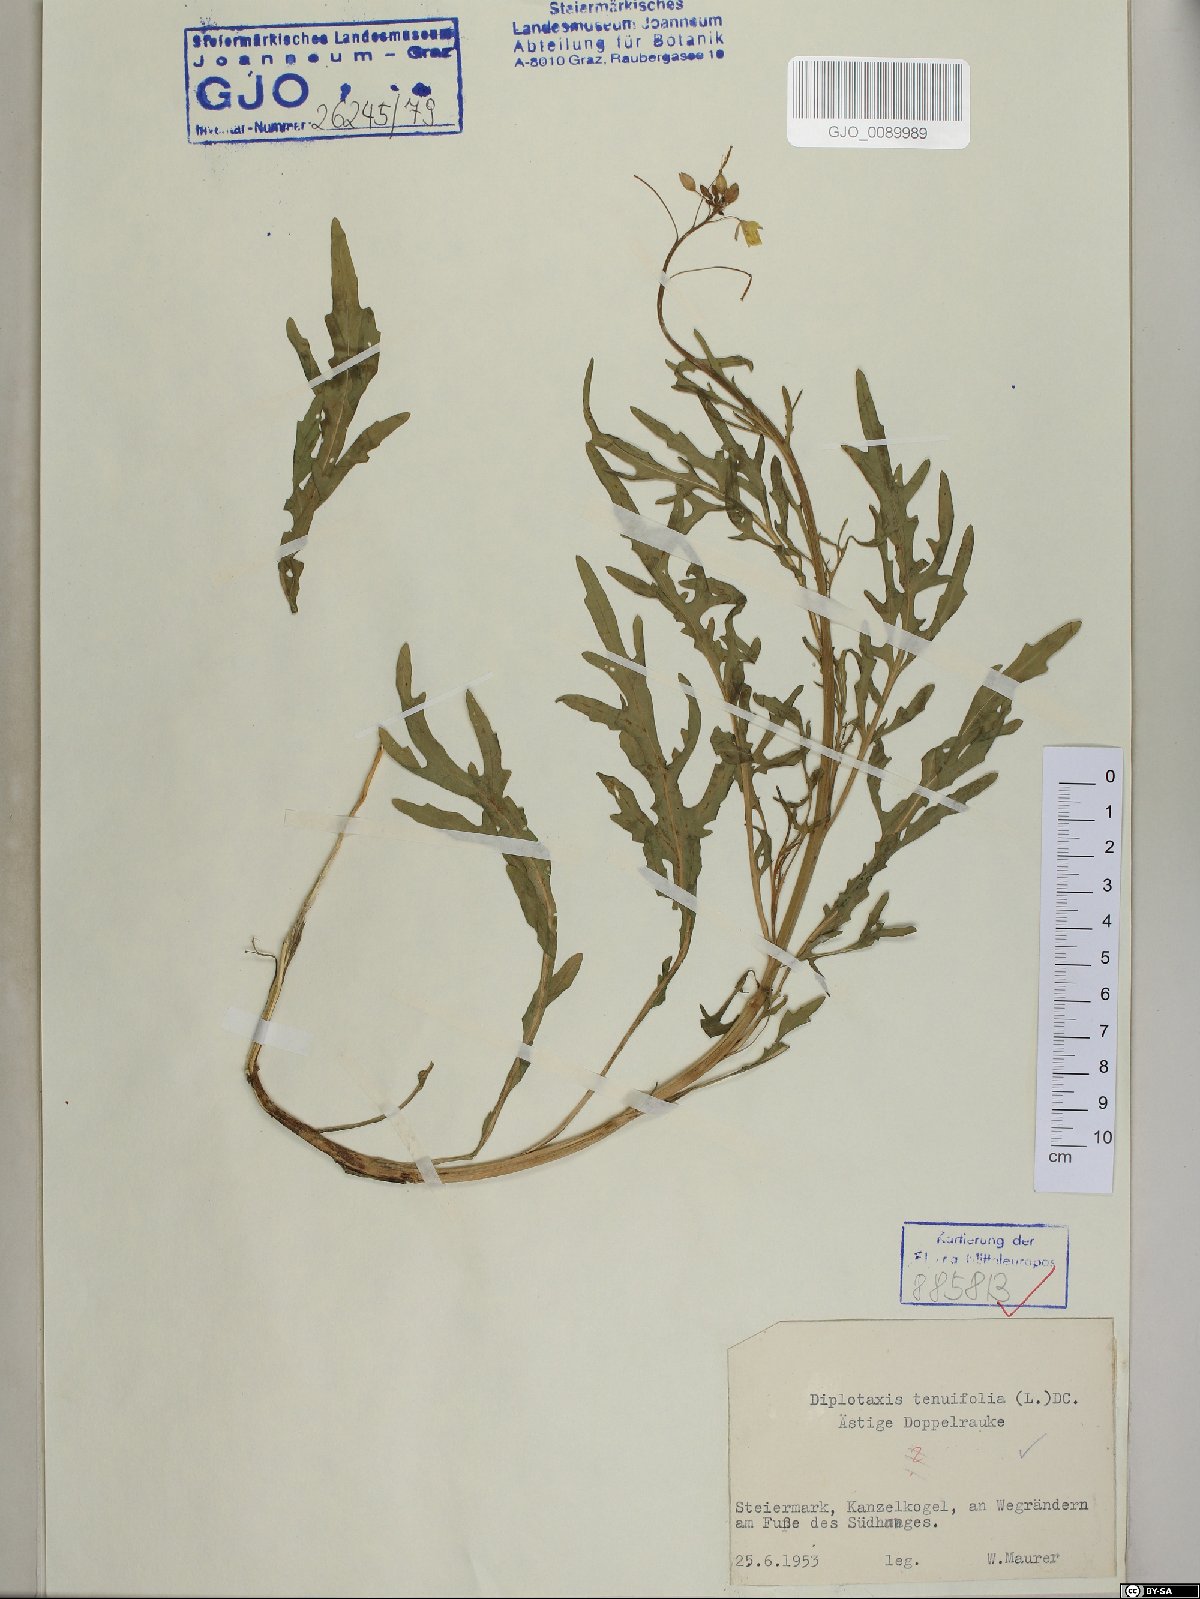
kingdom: Plantae
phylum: Tracheophyta
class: Magnoliopsida
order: Brassicales
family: Brassicaceae
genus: Diplotaxis
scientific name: Diplotaxis tenuifolia
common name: Perennial wall-rocket
